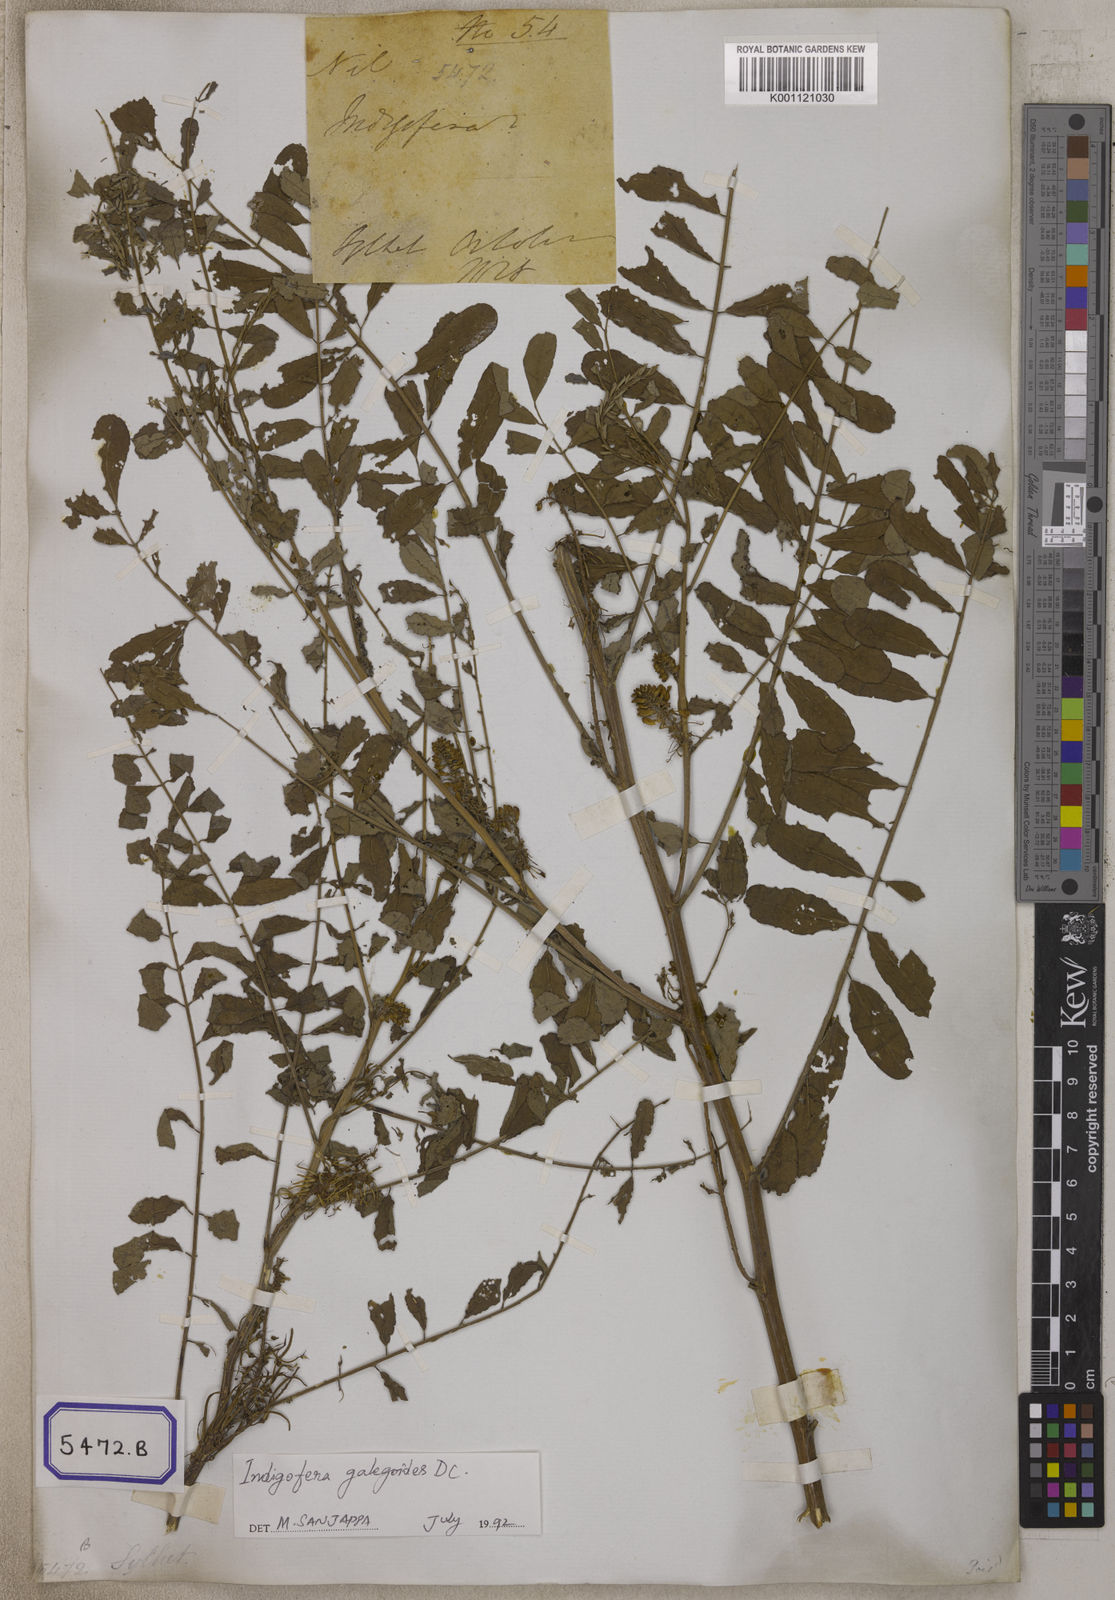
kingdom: Plantae
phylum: Tracheophyta
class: Magnoliopsida
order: Fabales
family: Fabaceae
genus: Indigofera
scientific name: Indigofera galegoides
